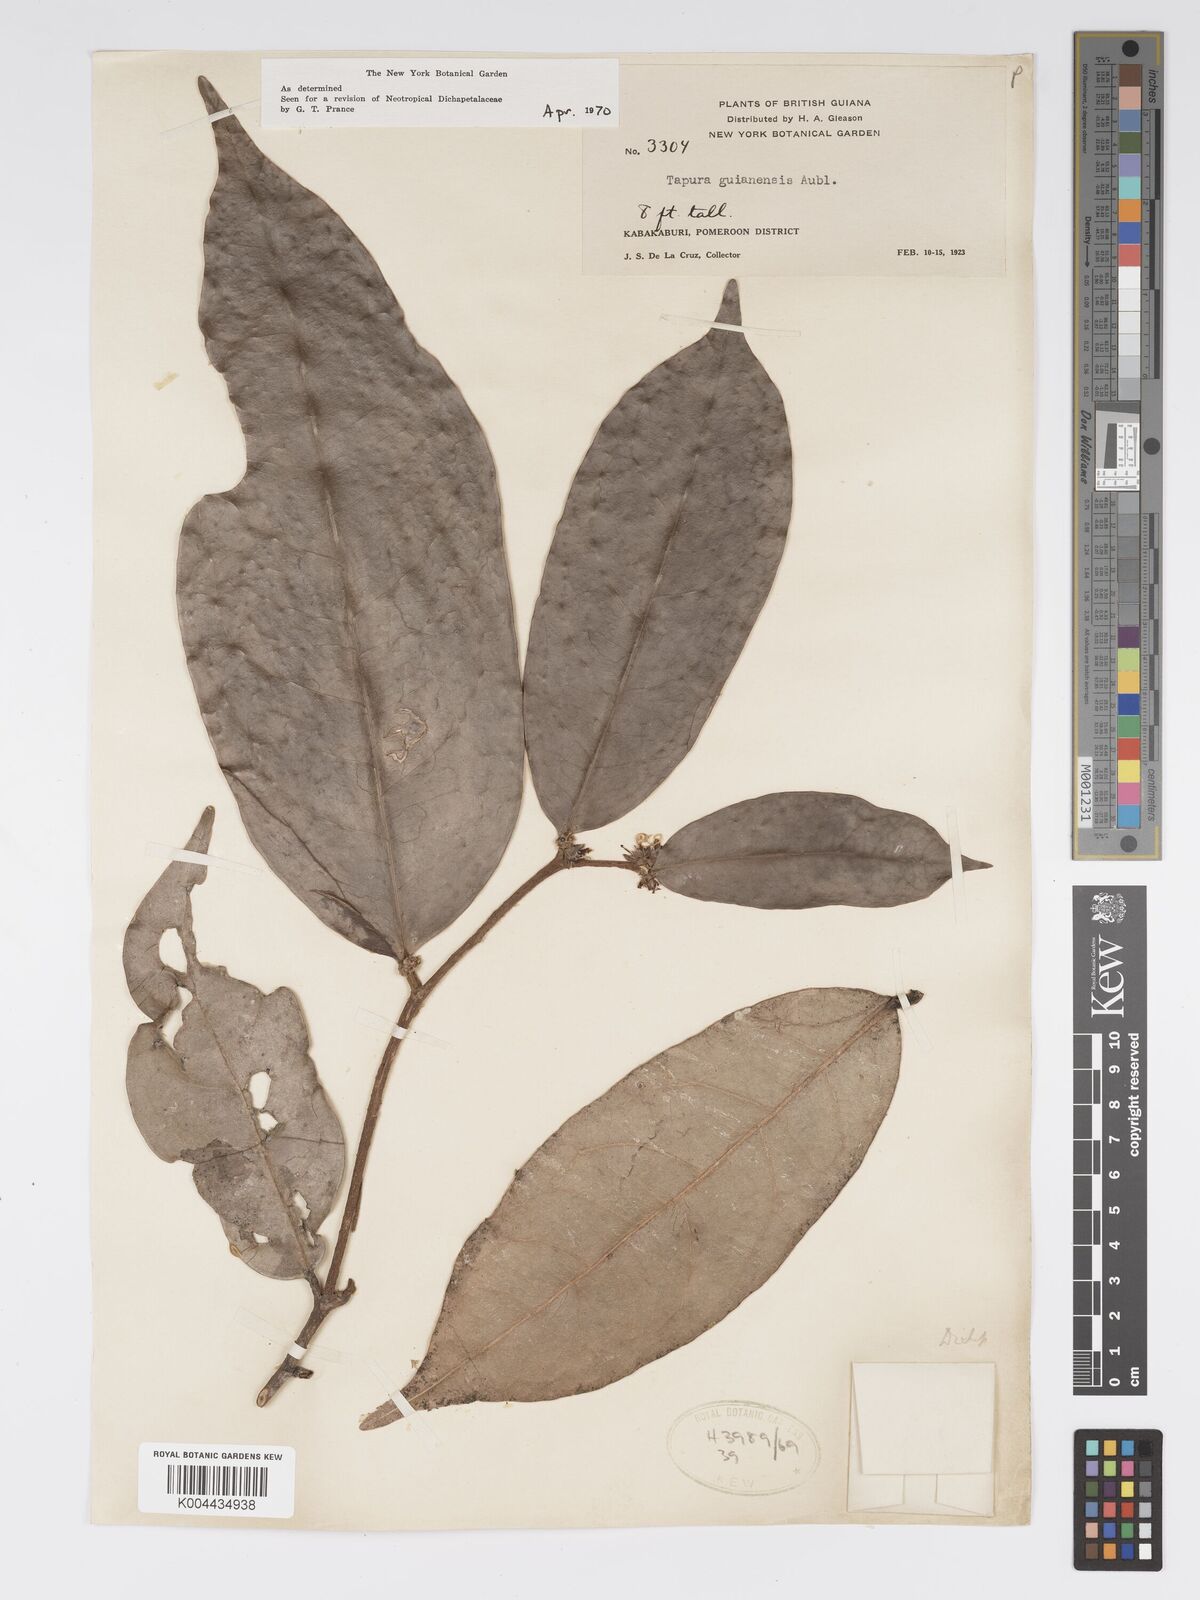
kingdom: Plantae
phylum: Tracheophyta
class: Magnoliopsida
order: Malpighiales
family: Dichapetalaceae
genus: Tapura
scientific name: Tapura guianensis
